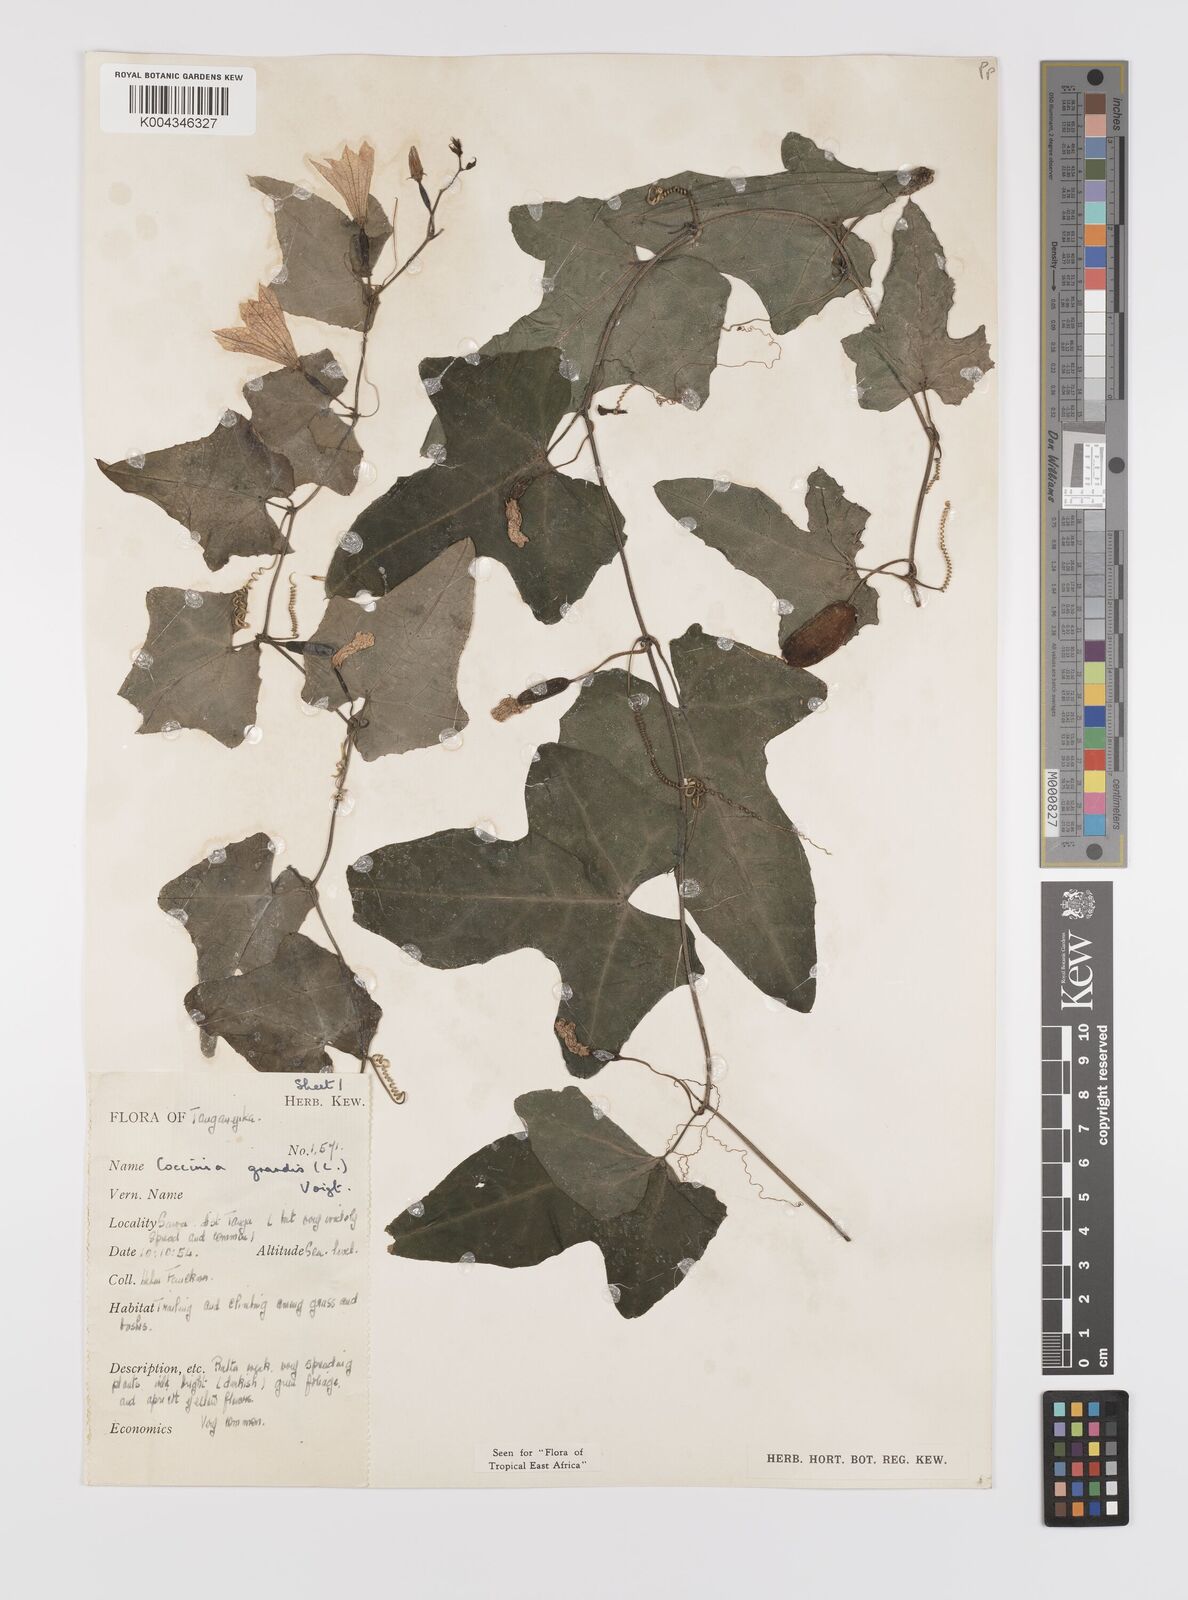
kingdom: Plantae
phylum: Tracheophyta
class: Magnoliopsida
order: Cucurbitales
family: Cucurbitaceae
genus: Coccinia
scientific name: Coccinia grandis
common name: Ivy gourd
